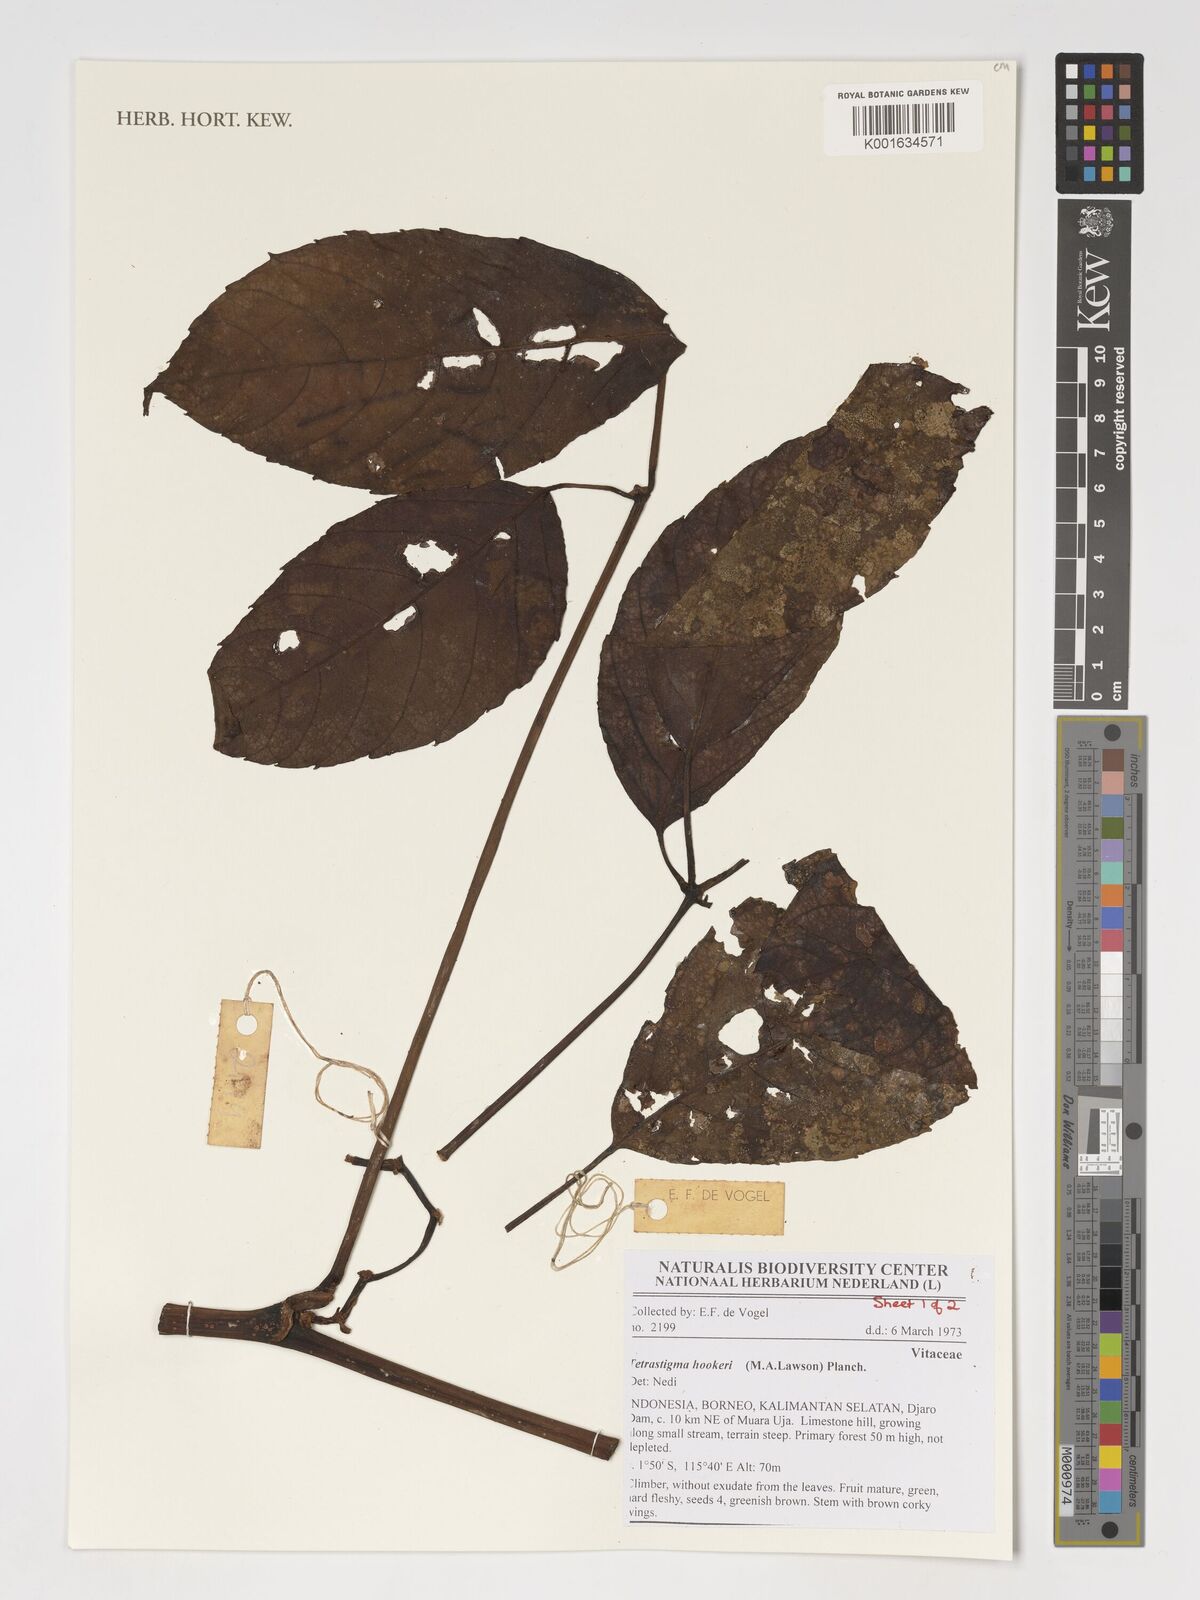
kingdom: Plantae
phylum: Tracheophyta
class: Magnoliopsida
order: Vitales
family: Vitaceae
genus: Tetrastigma
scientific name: Tetrastigma hookeri
